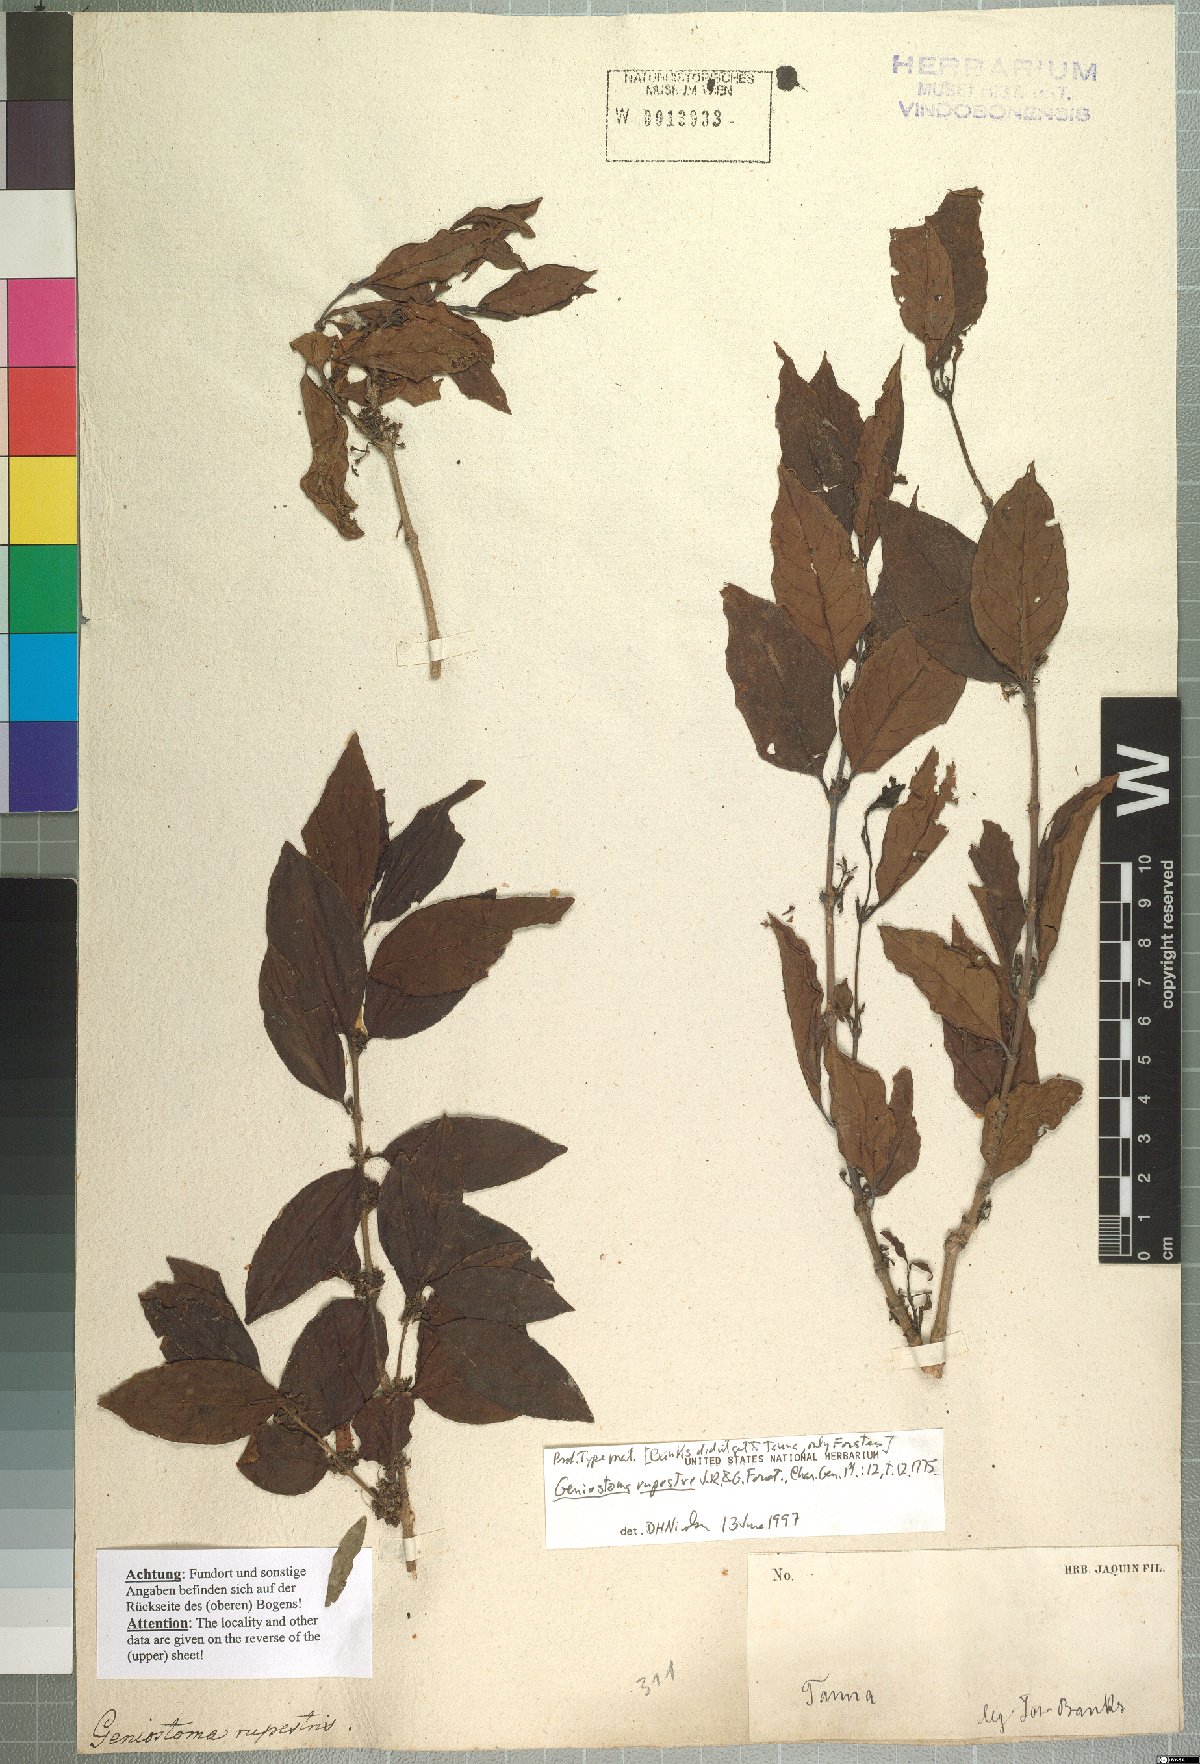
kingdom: Plantae
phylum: Tracheophyta
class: Magnoliopsida
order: Gentianales
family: Loganiaceae
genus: Geniostoma
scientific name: Geniostoma rupestre
